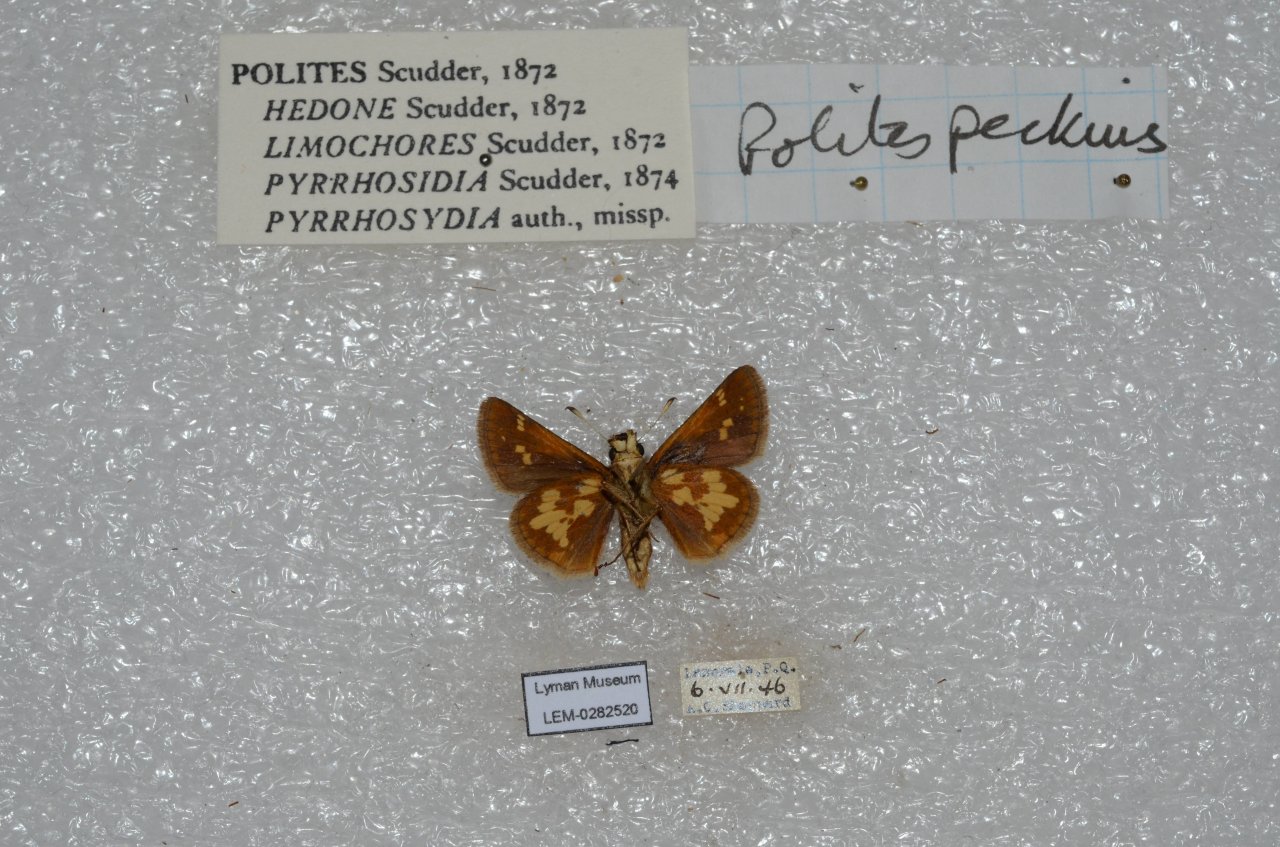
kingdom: Animalia
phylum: Arthropoda
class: Insecta
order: Lepidoptera
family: Hesperiidae
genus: Polites
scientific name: Polites coras
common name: Peck's Skipper
